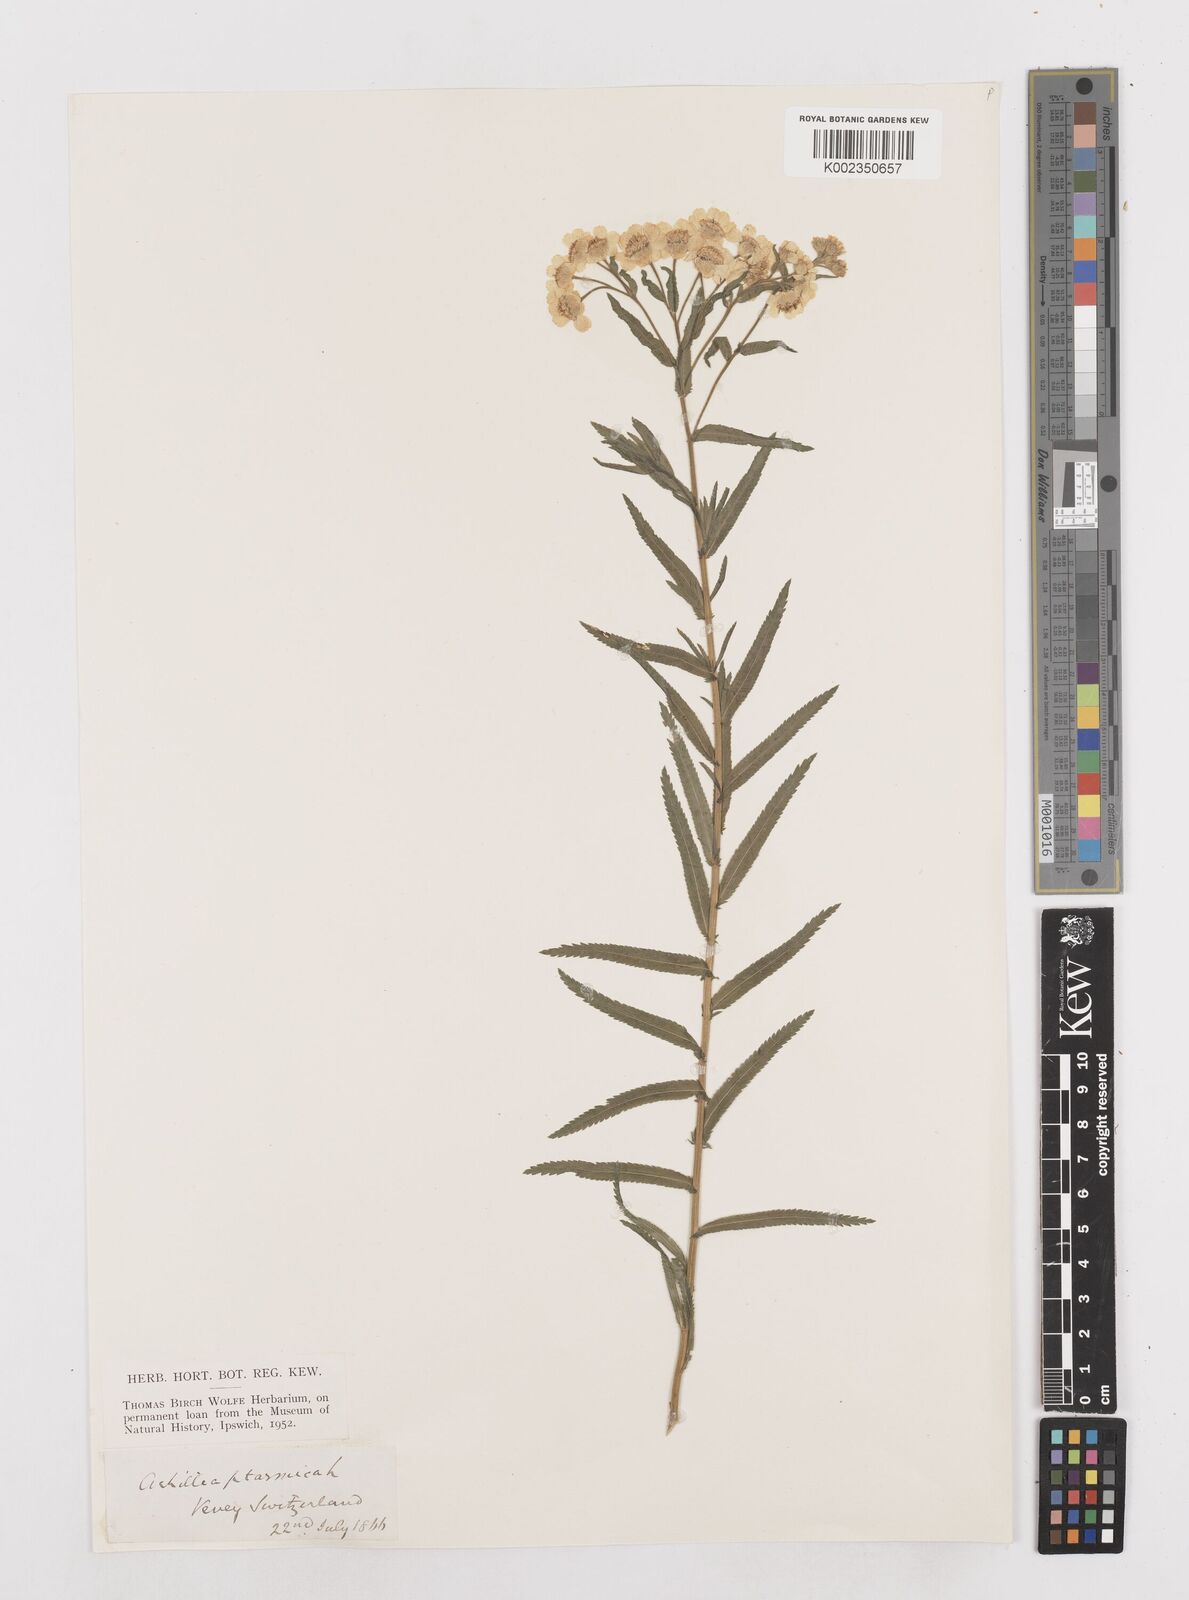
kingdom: Plantae
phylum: Tracheophyta
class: Magnoliopsida
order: Asterales
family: Asteraceae
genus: Achillea
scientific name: Achillea ptarmica
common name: Sneezeweed
